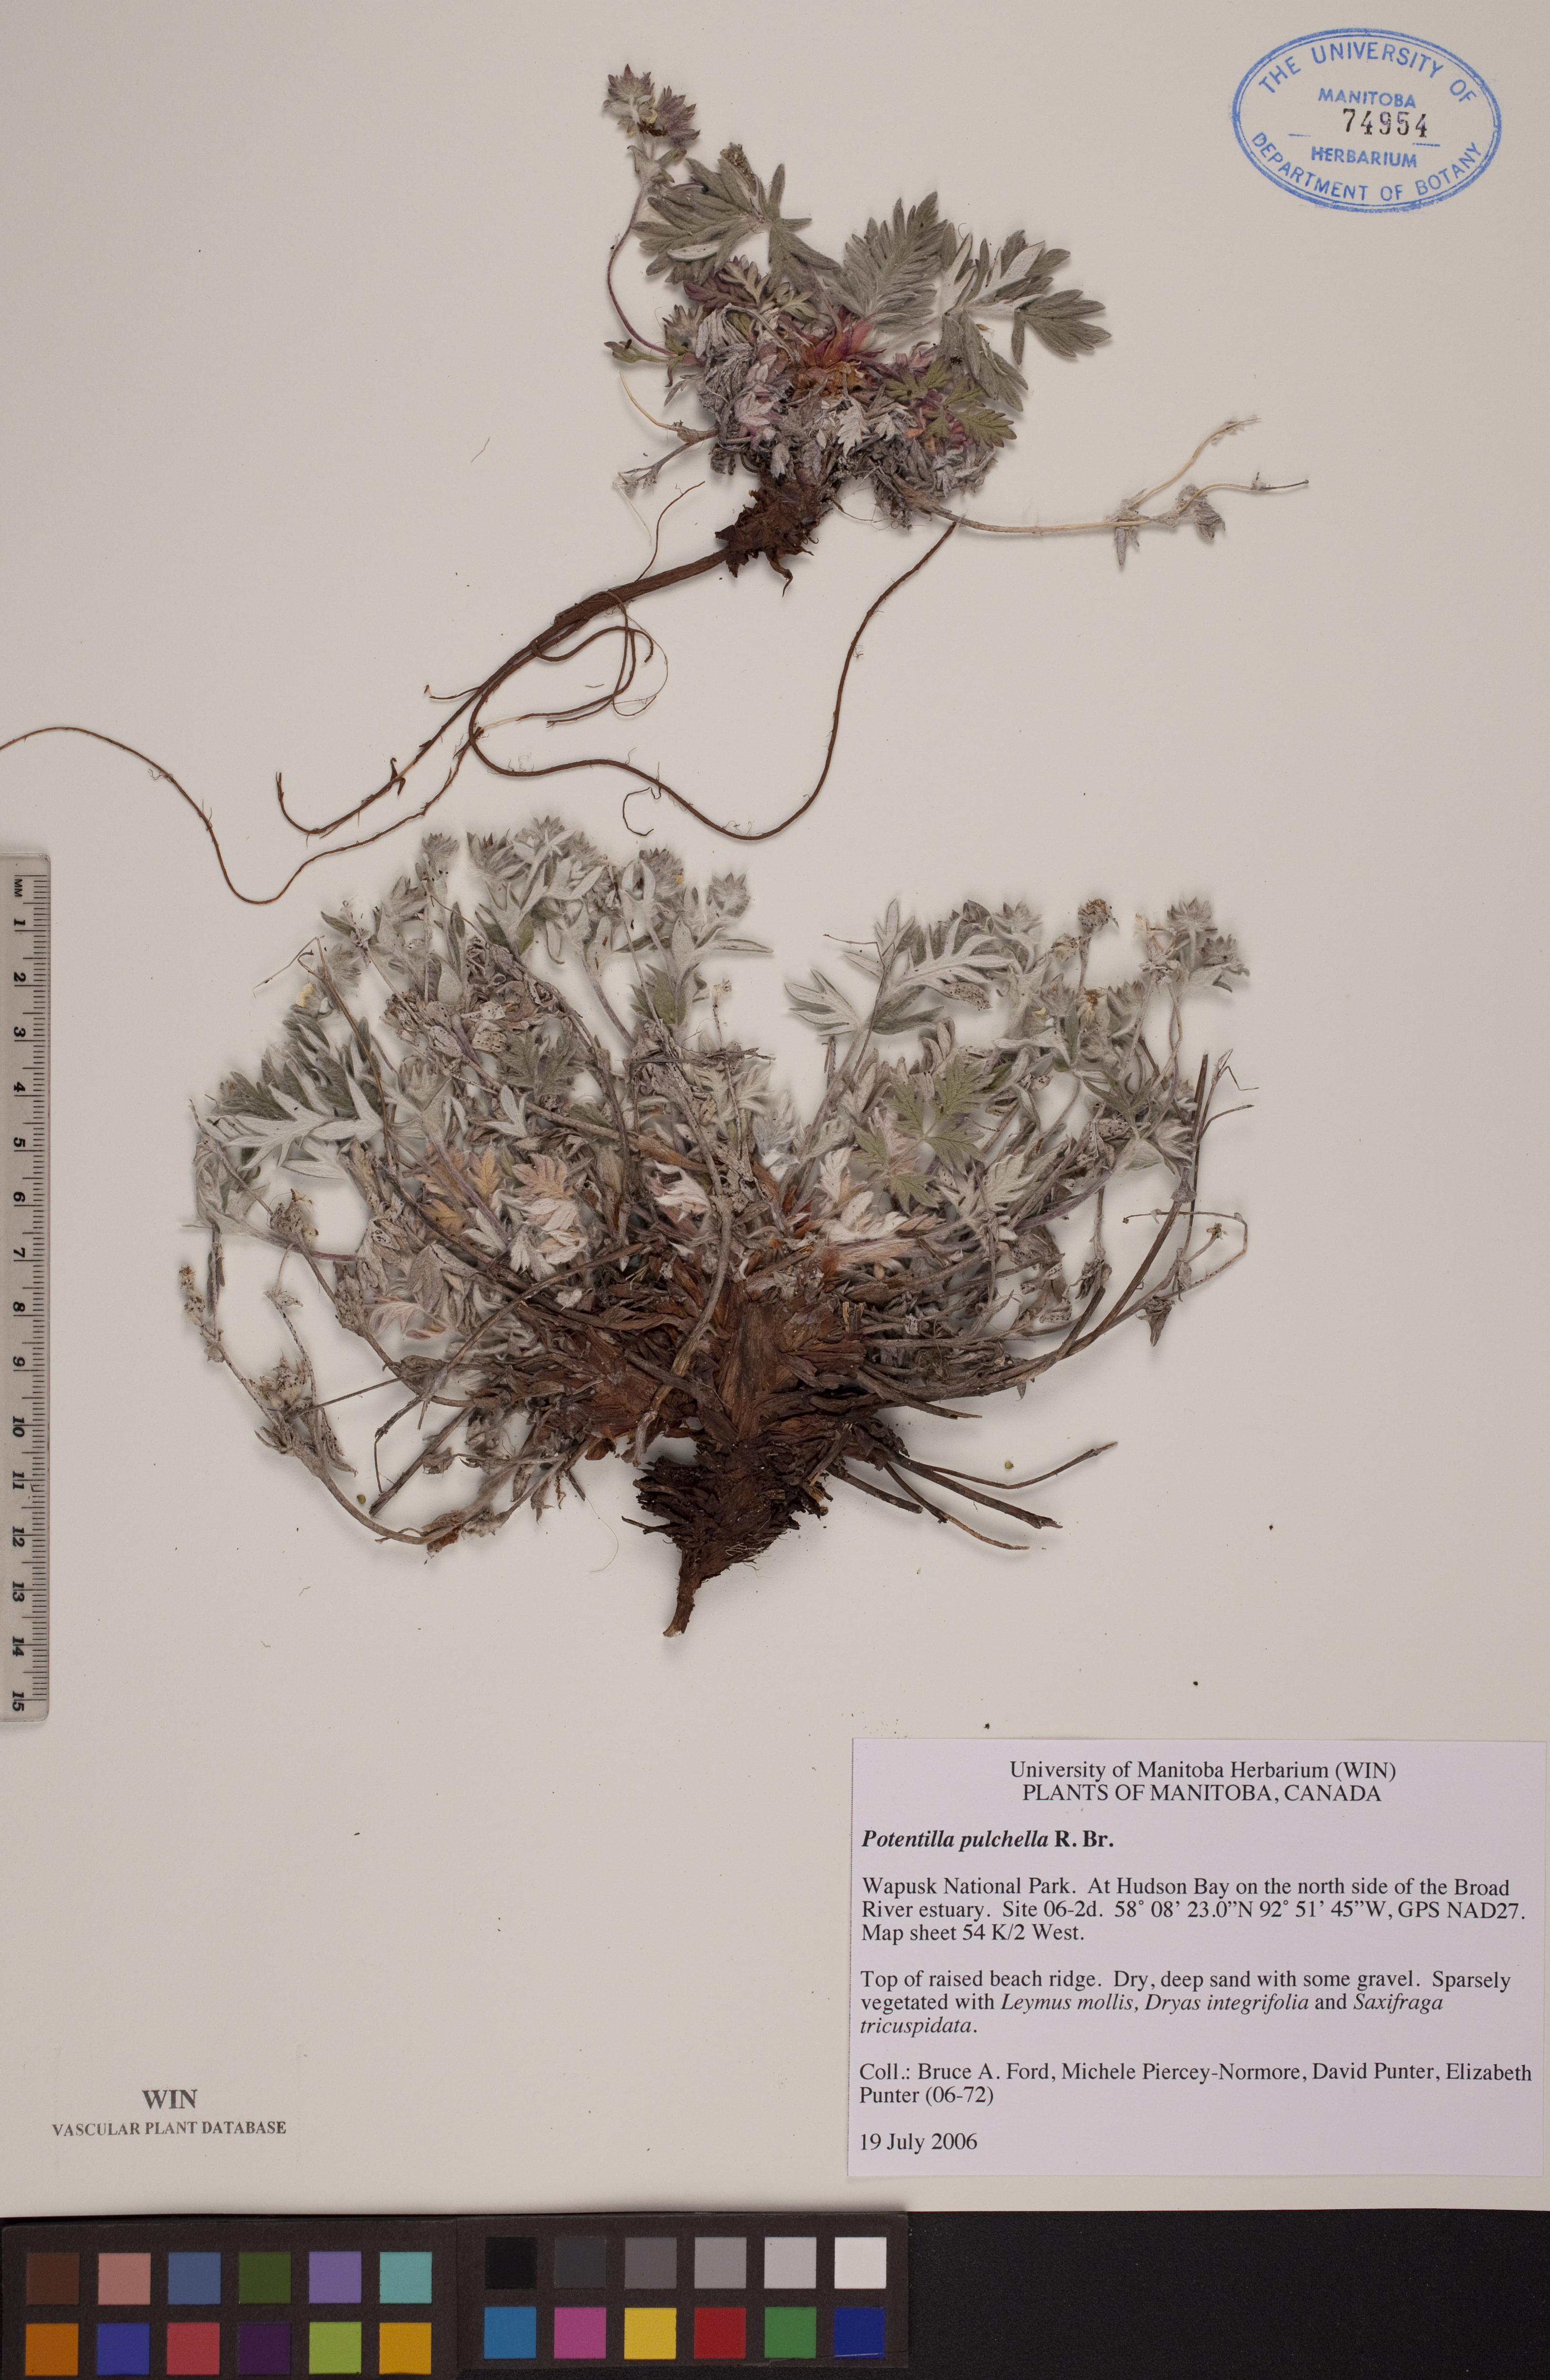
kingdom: Plantae
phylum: Tracheophyta
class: Magnoliopsida
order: Rosales
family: Rosaceae
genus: Potentilla
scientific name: Potentilla pulchella
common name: Pretty cinquefoil
